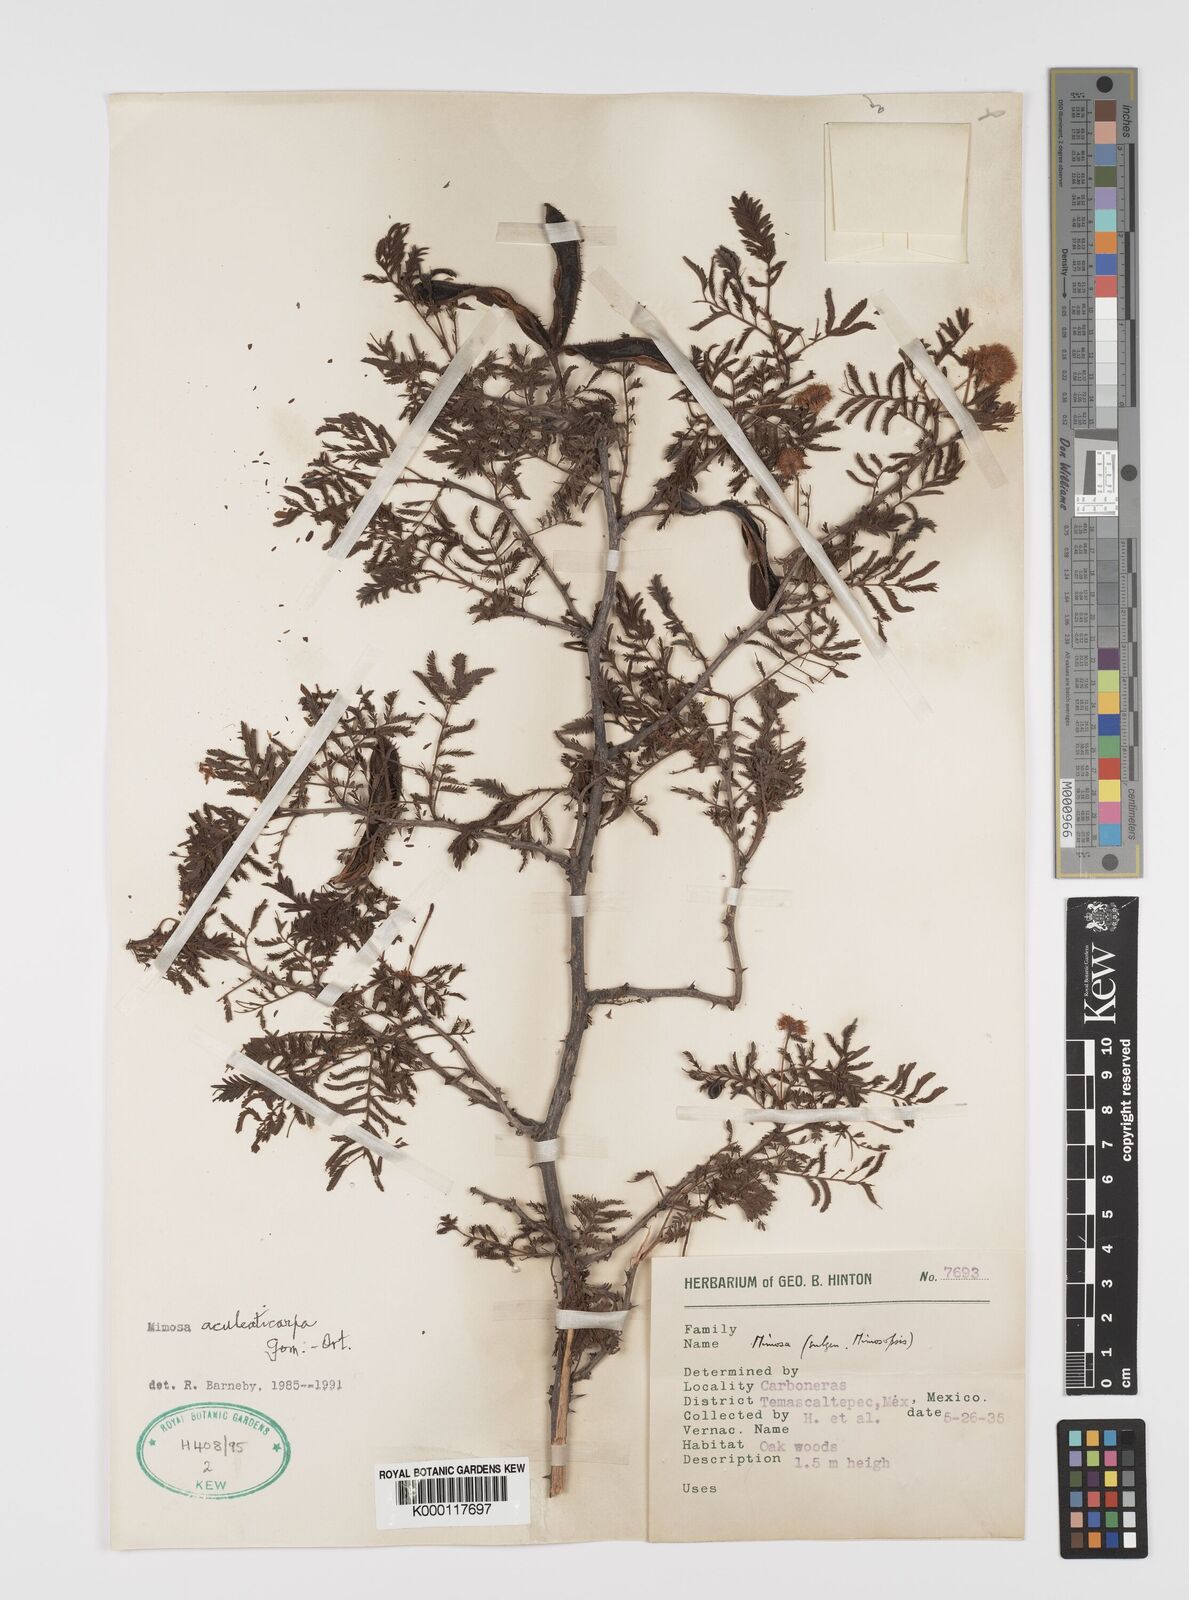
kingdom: Plantae
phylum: Tracheophyta
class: Magnoliopsida
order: Fabales
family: Fabaceae
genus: Mimosa
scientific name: Mimosa aculeaticarpa
